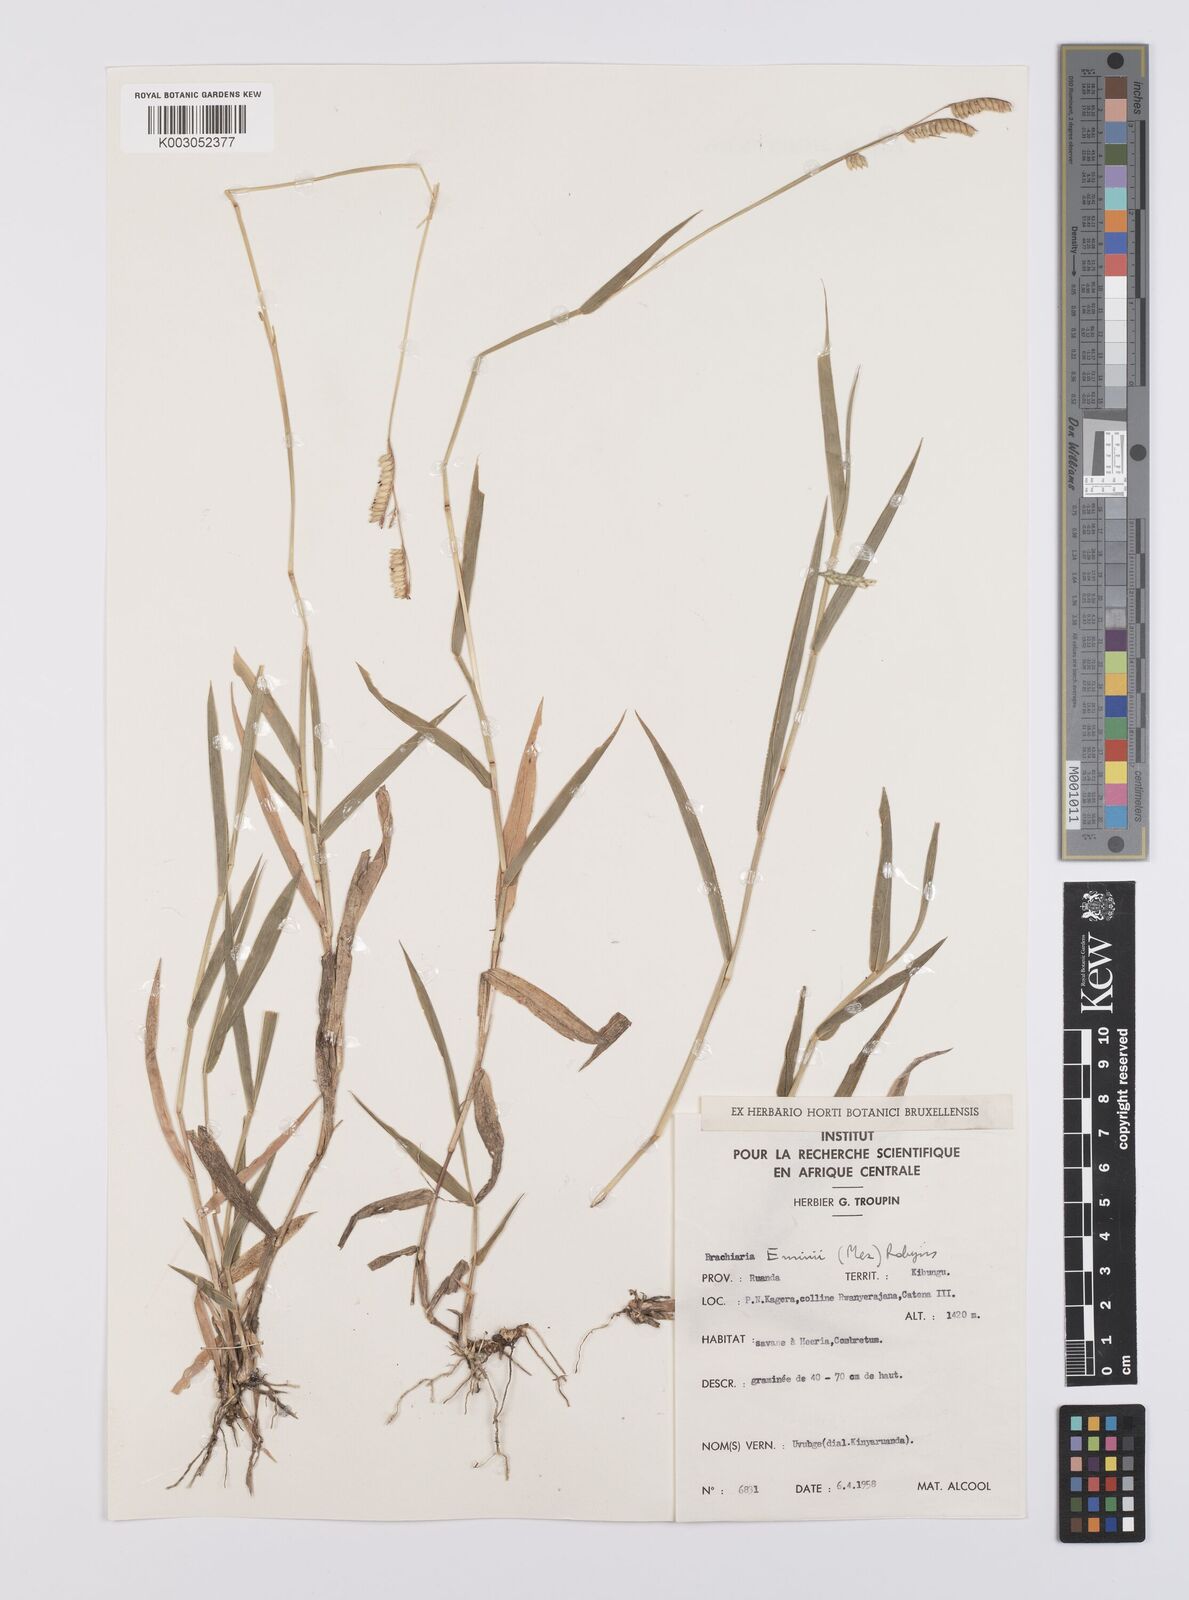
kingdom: Plantae
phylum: Tracheophyta
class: Liliopsida
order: Poales
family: Poaceae
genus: Urochloa
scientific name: Urochloa eminii
